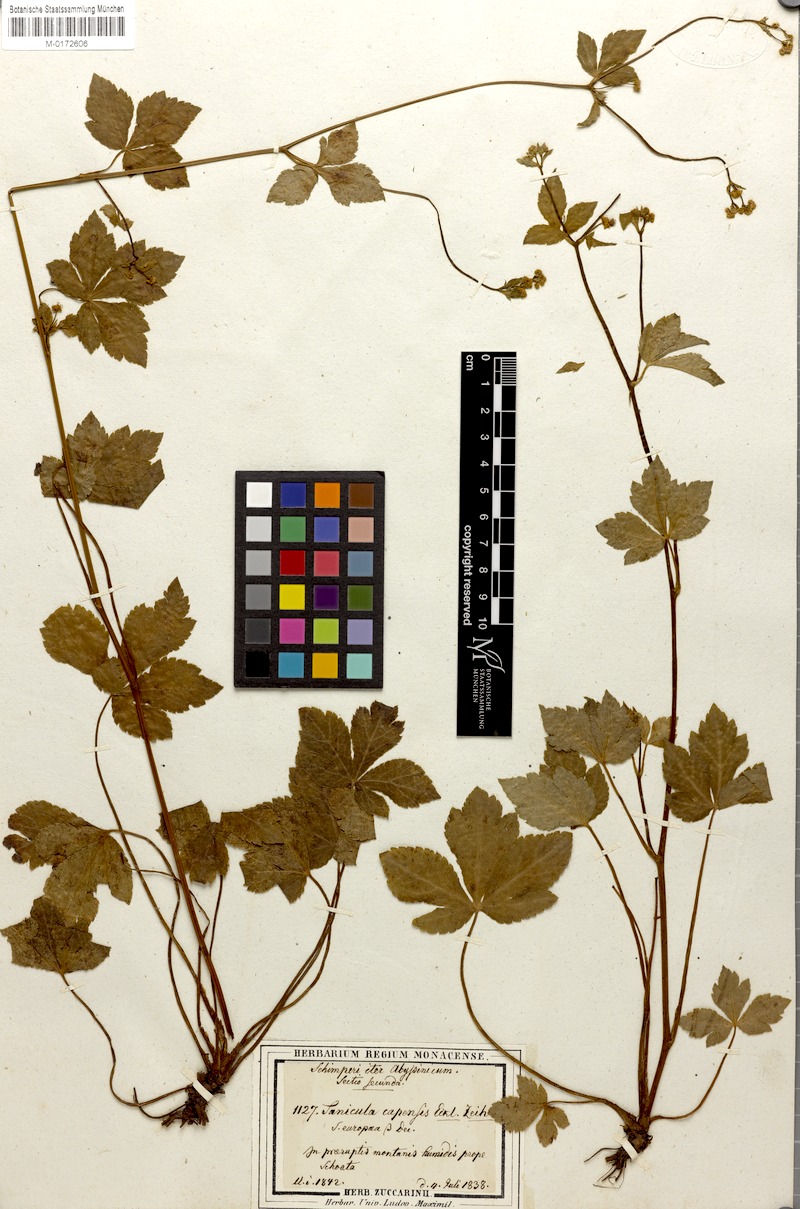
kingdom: Plantae
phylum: Tracheophyta
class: Magnoliopsida
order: Apiales
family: Apiaceae
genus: Sanicula
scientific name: Sanicula elata
